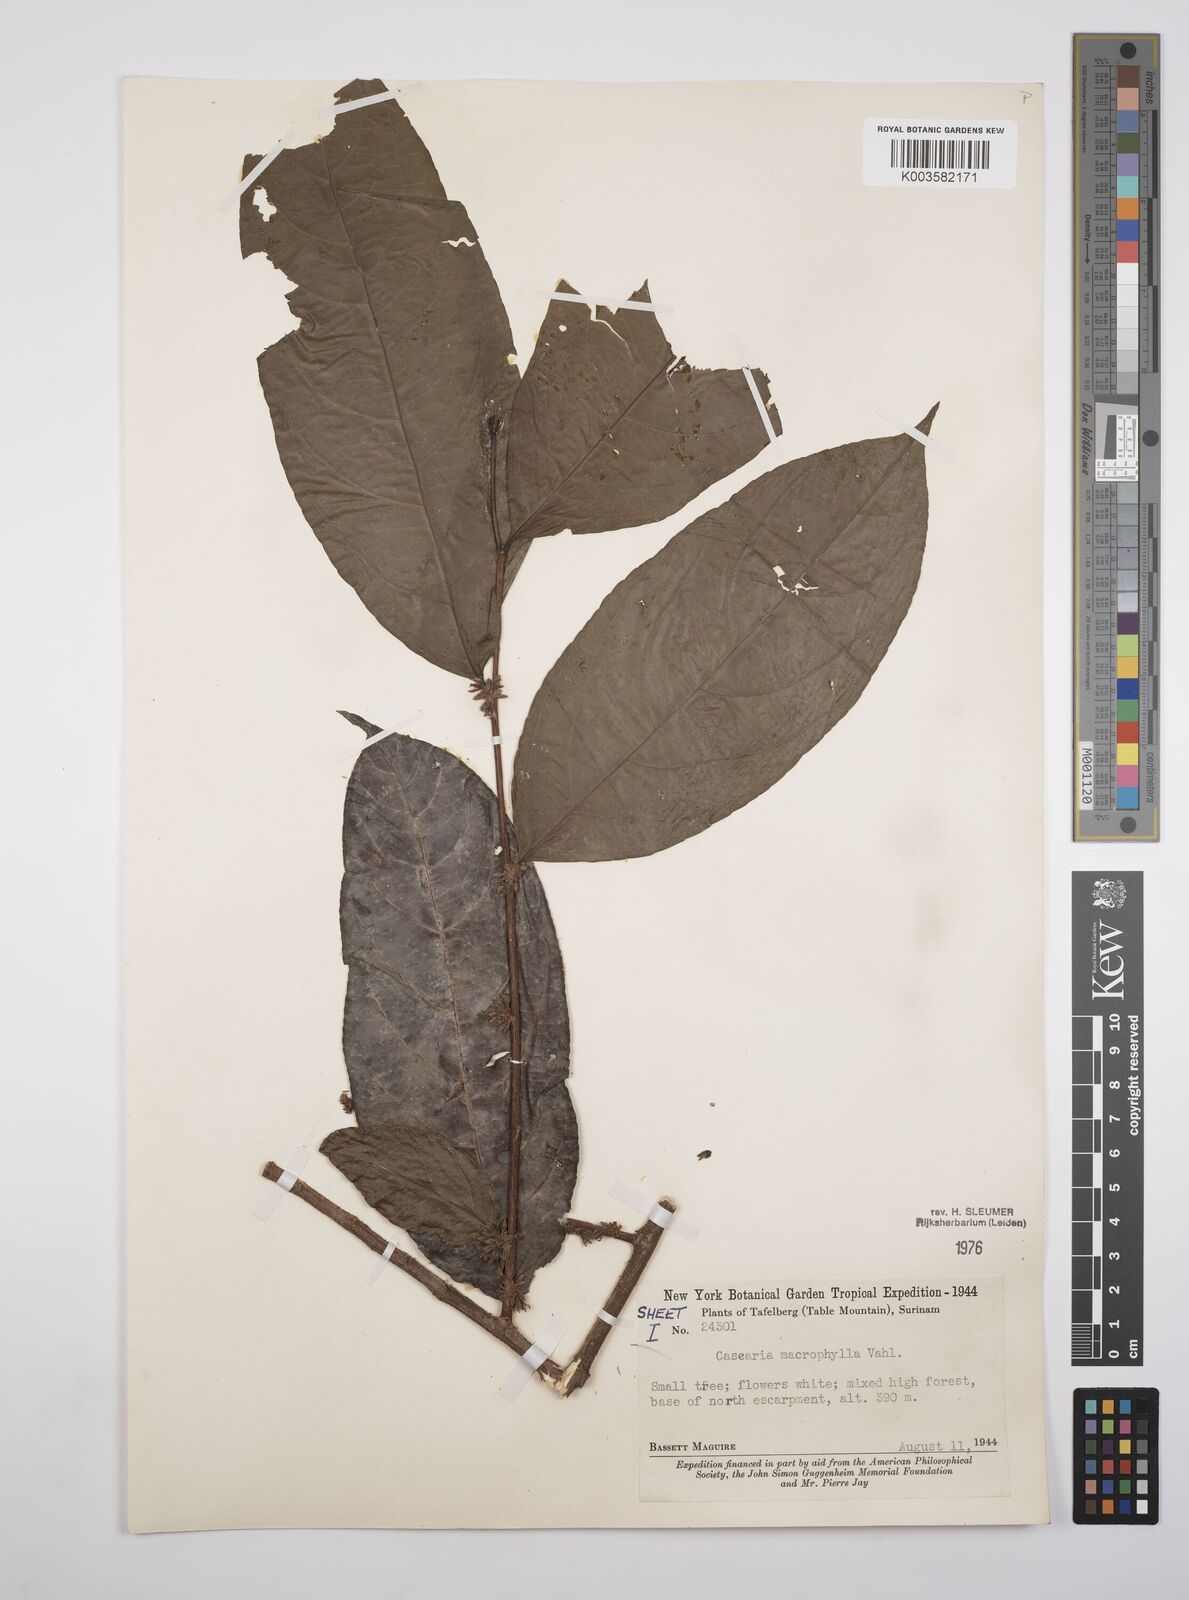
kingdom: Plantae
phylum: Tracheophyta
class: Magnoliopsida
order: Malpighiales
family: Salicaceae
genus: Casearia
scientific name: Casearia pitumba
